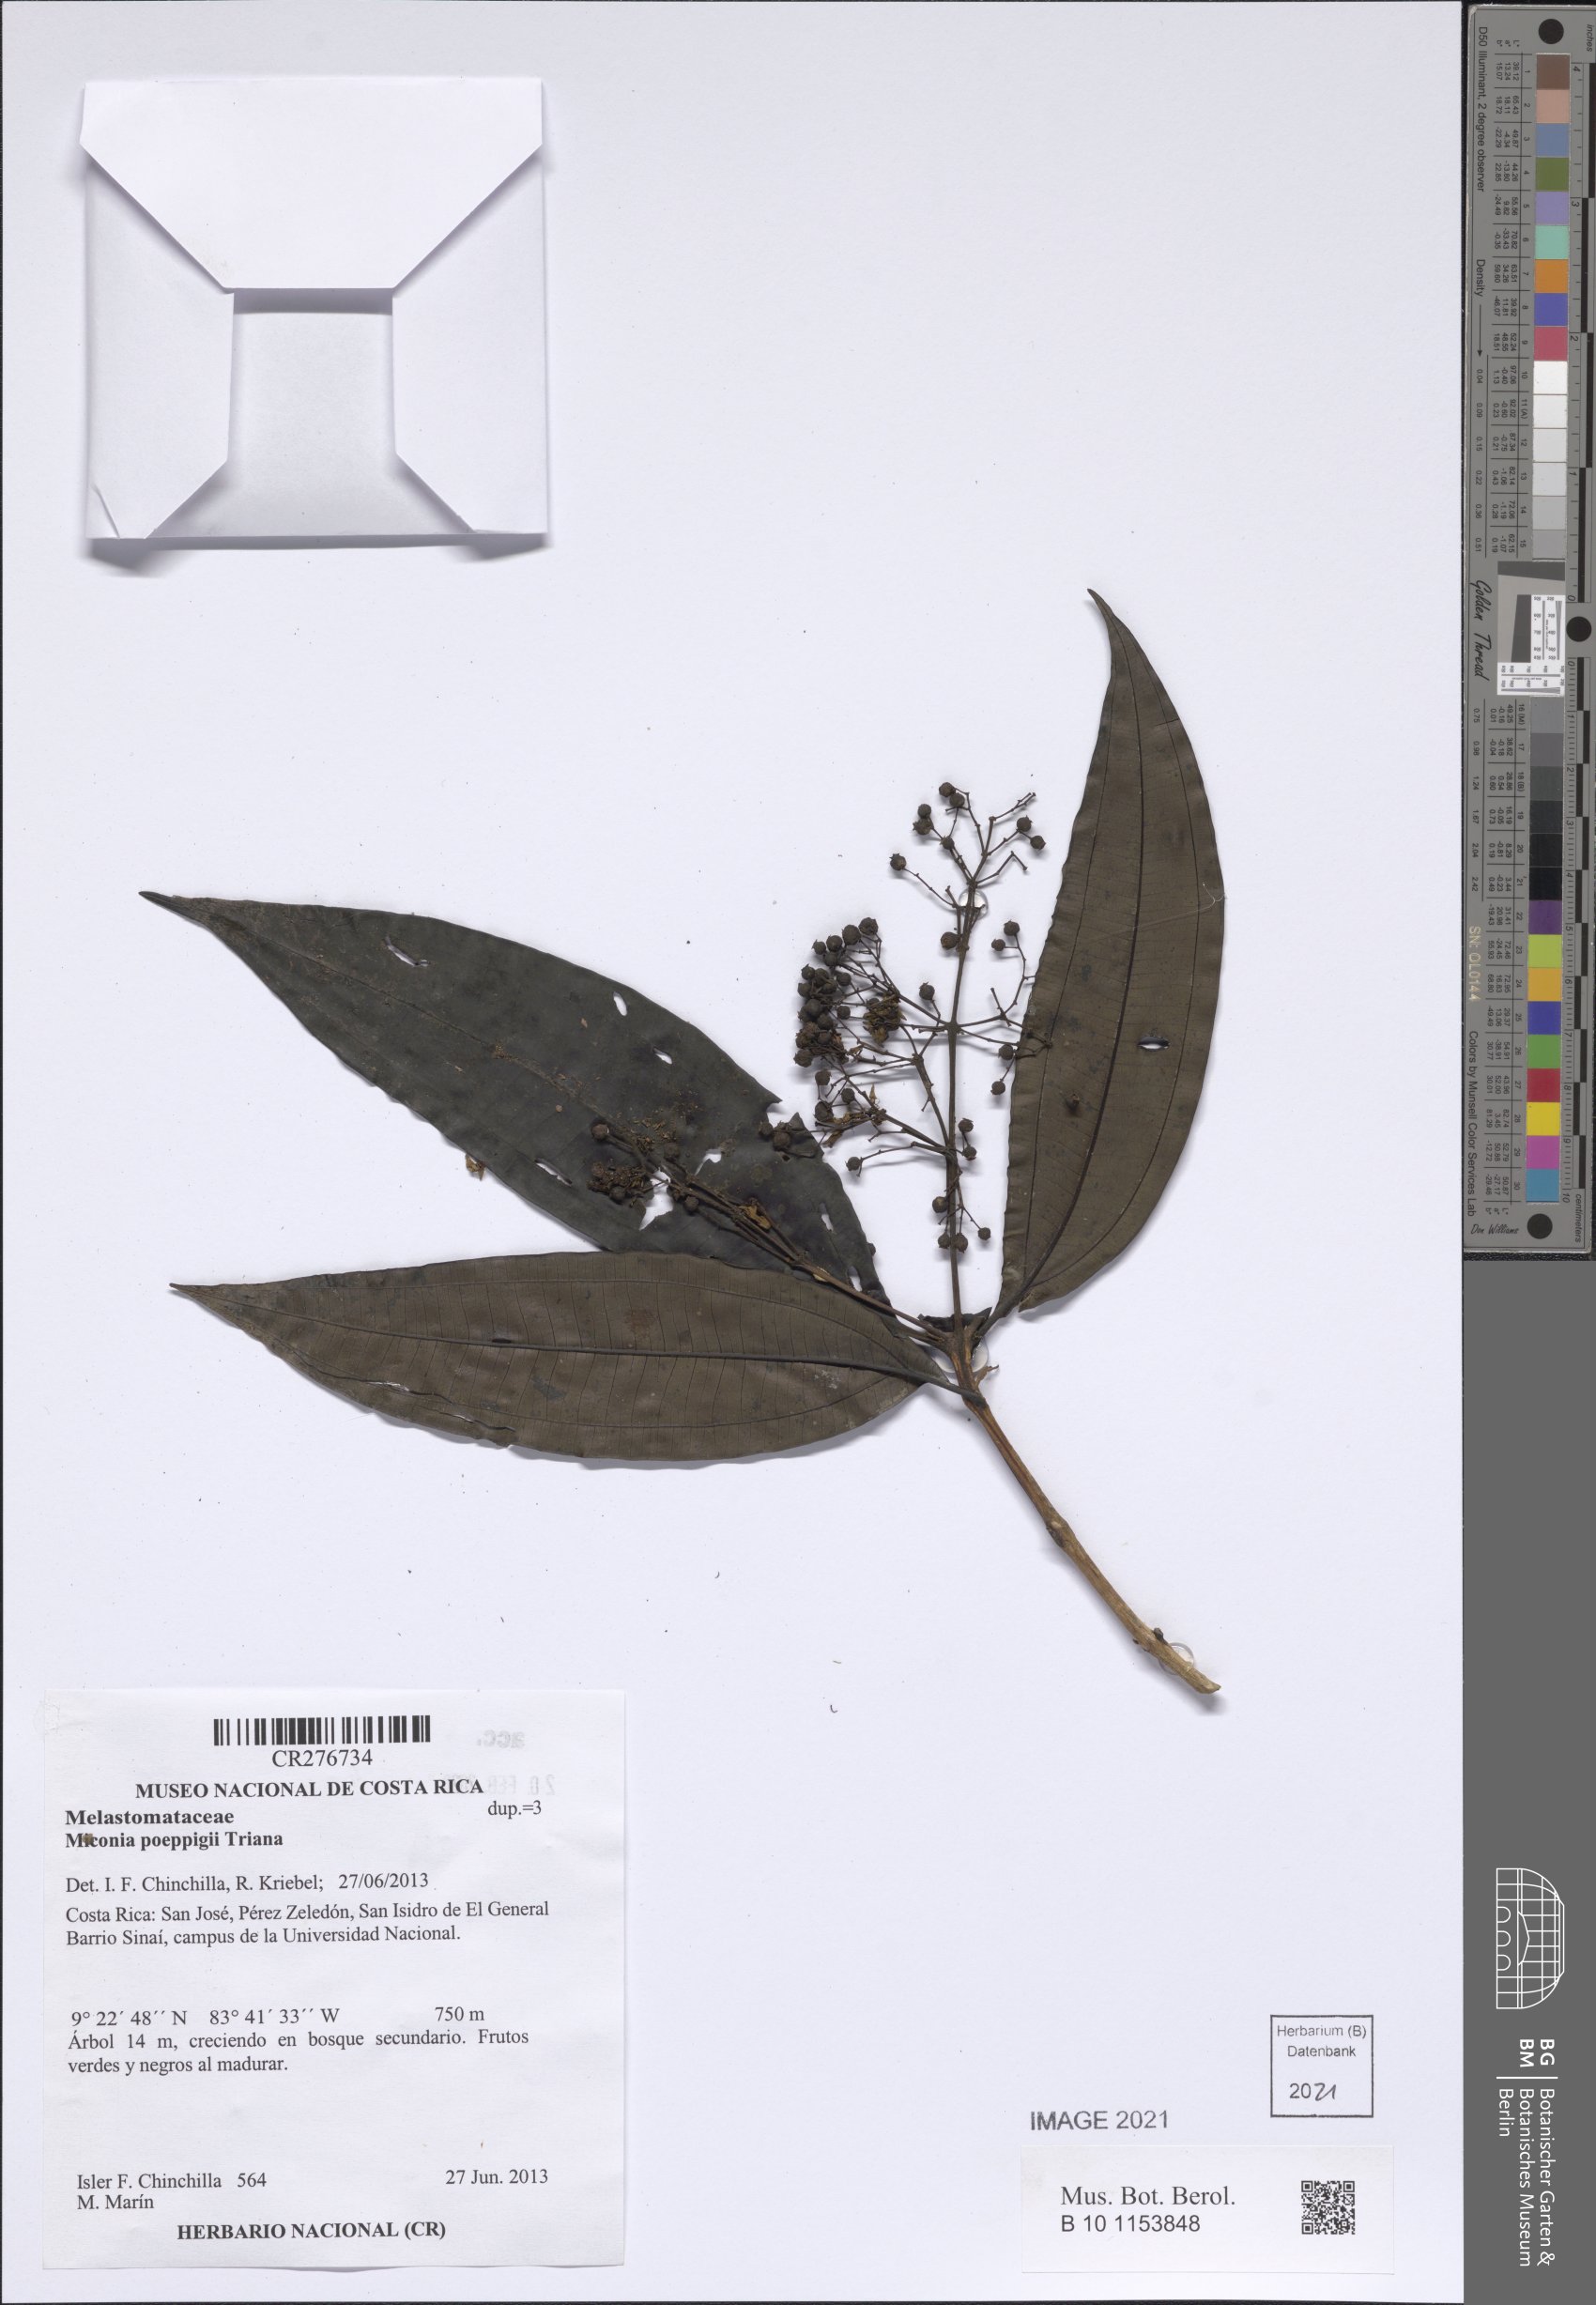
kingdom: Plantae
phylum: Tracheophyta
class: Magnoliopsida
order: Myrtales
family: Melastomataceae
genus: Miconia
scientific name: Miconia poeppigii
